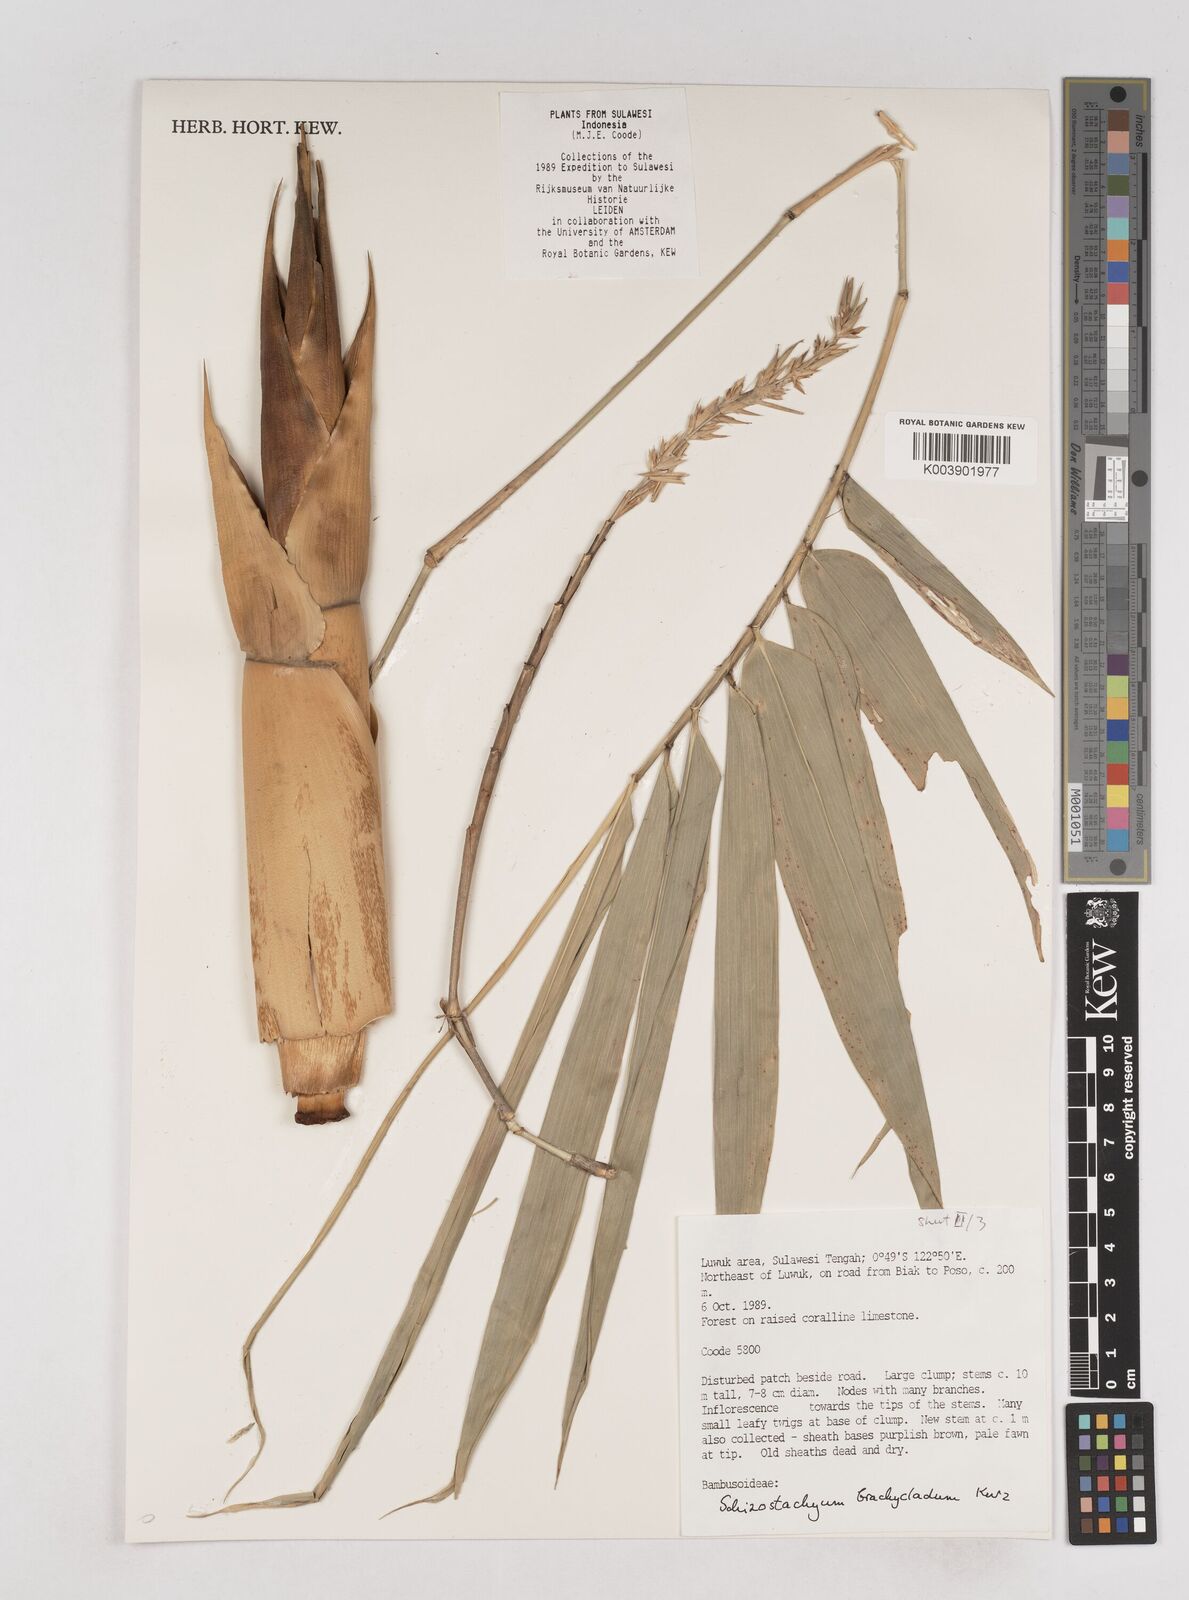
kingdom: Plantae
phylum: Tracheophyta
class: Liliopsida
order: Poales
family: Poaceae
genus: Schizostachyum
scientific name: Schizostachyum brachycladum
